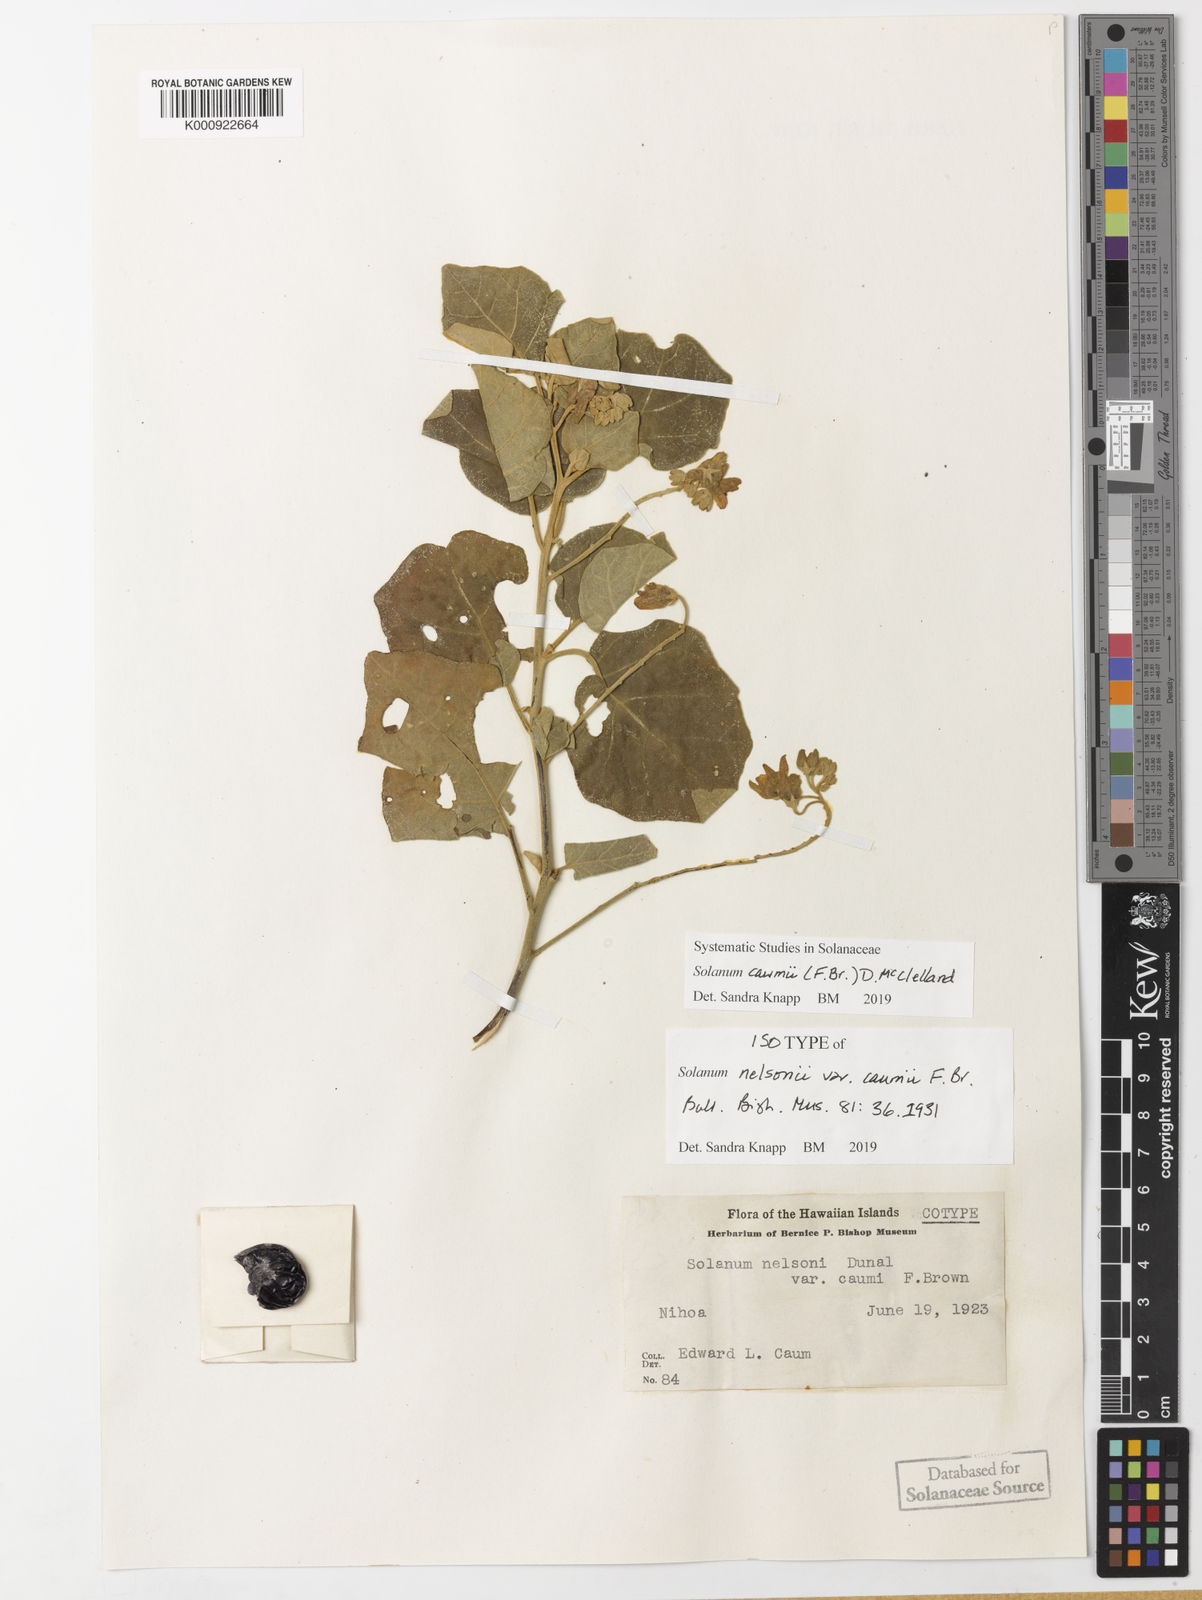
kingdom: Plantae
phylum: Tracheophyta
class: Magnoliopsida
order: Solanales
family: Solanaceae
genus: Solanum
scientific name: Solanum oxycarpum
